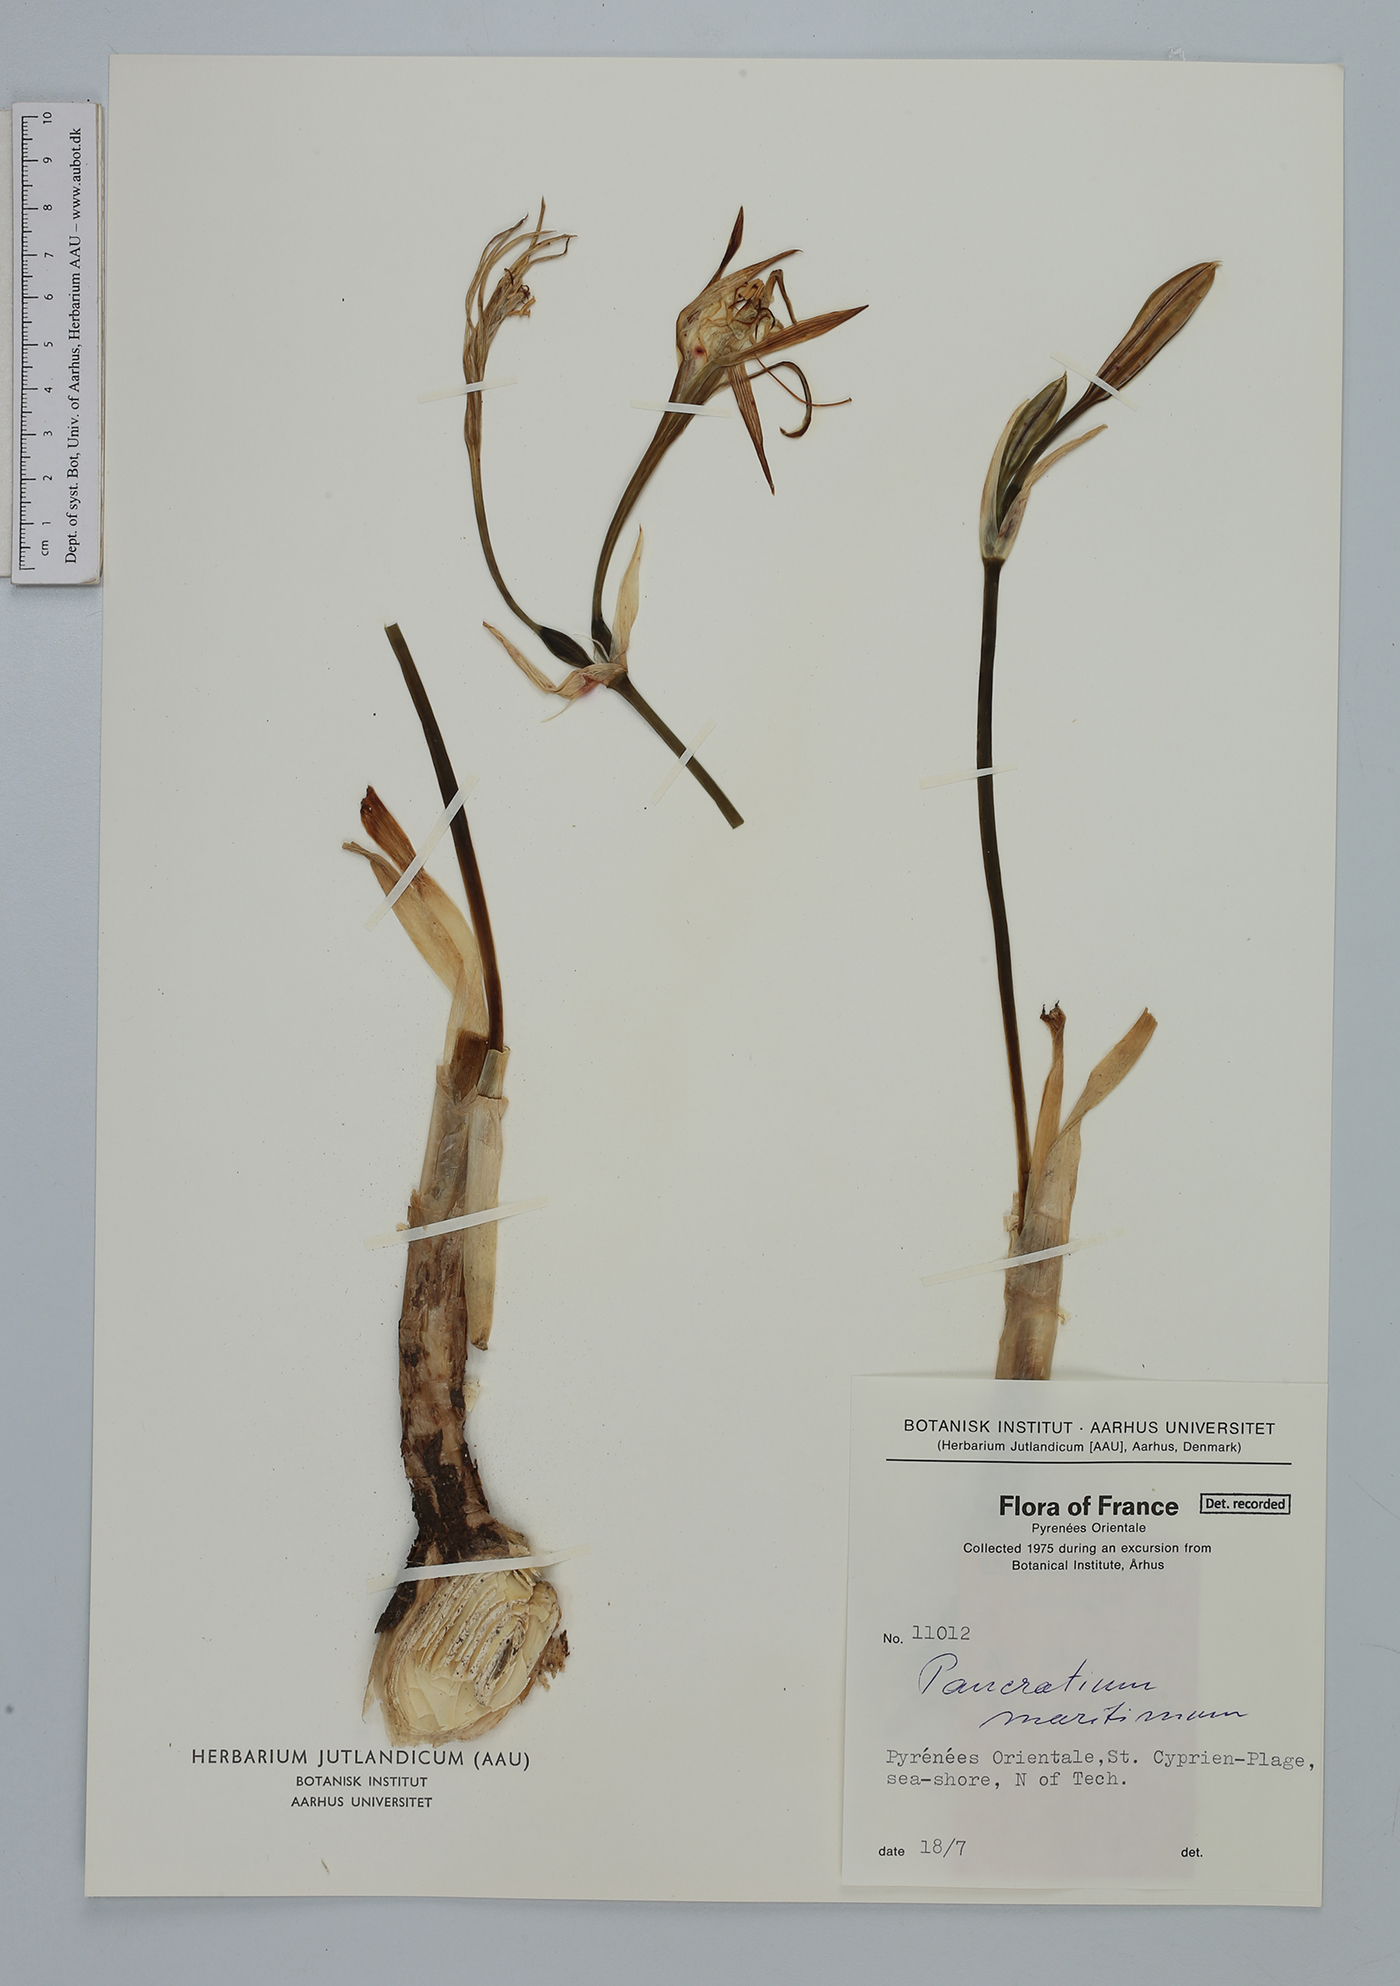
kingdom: Plantae
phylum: Tracheophyta
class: Liliopsida
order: Asparagales
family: Amaryllidaceae
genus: Pancratium
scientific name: Pancratium maritimum
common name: Sea-daffodil
